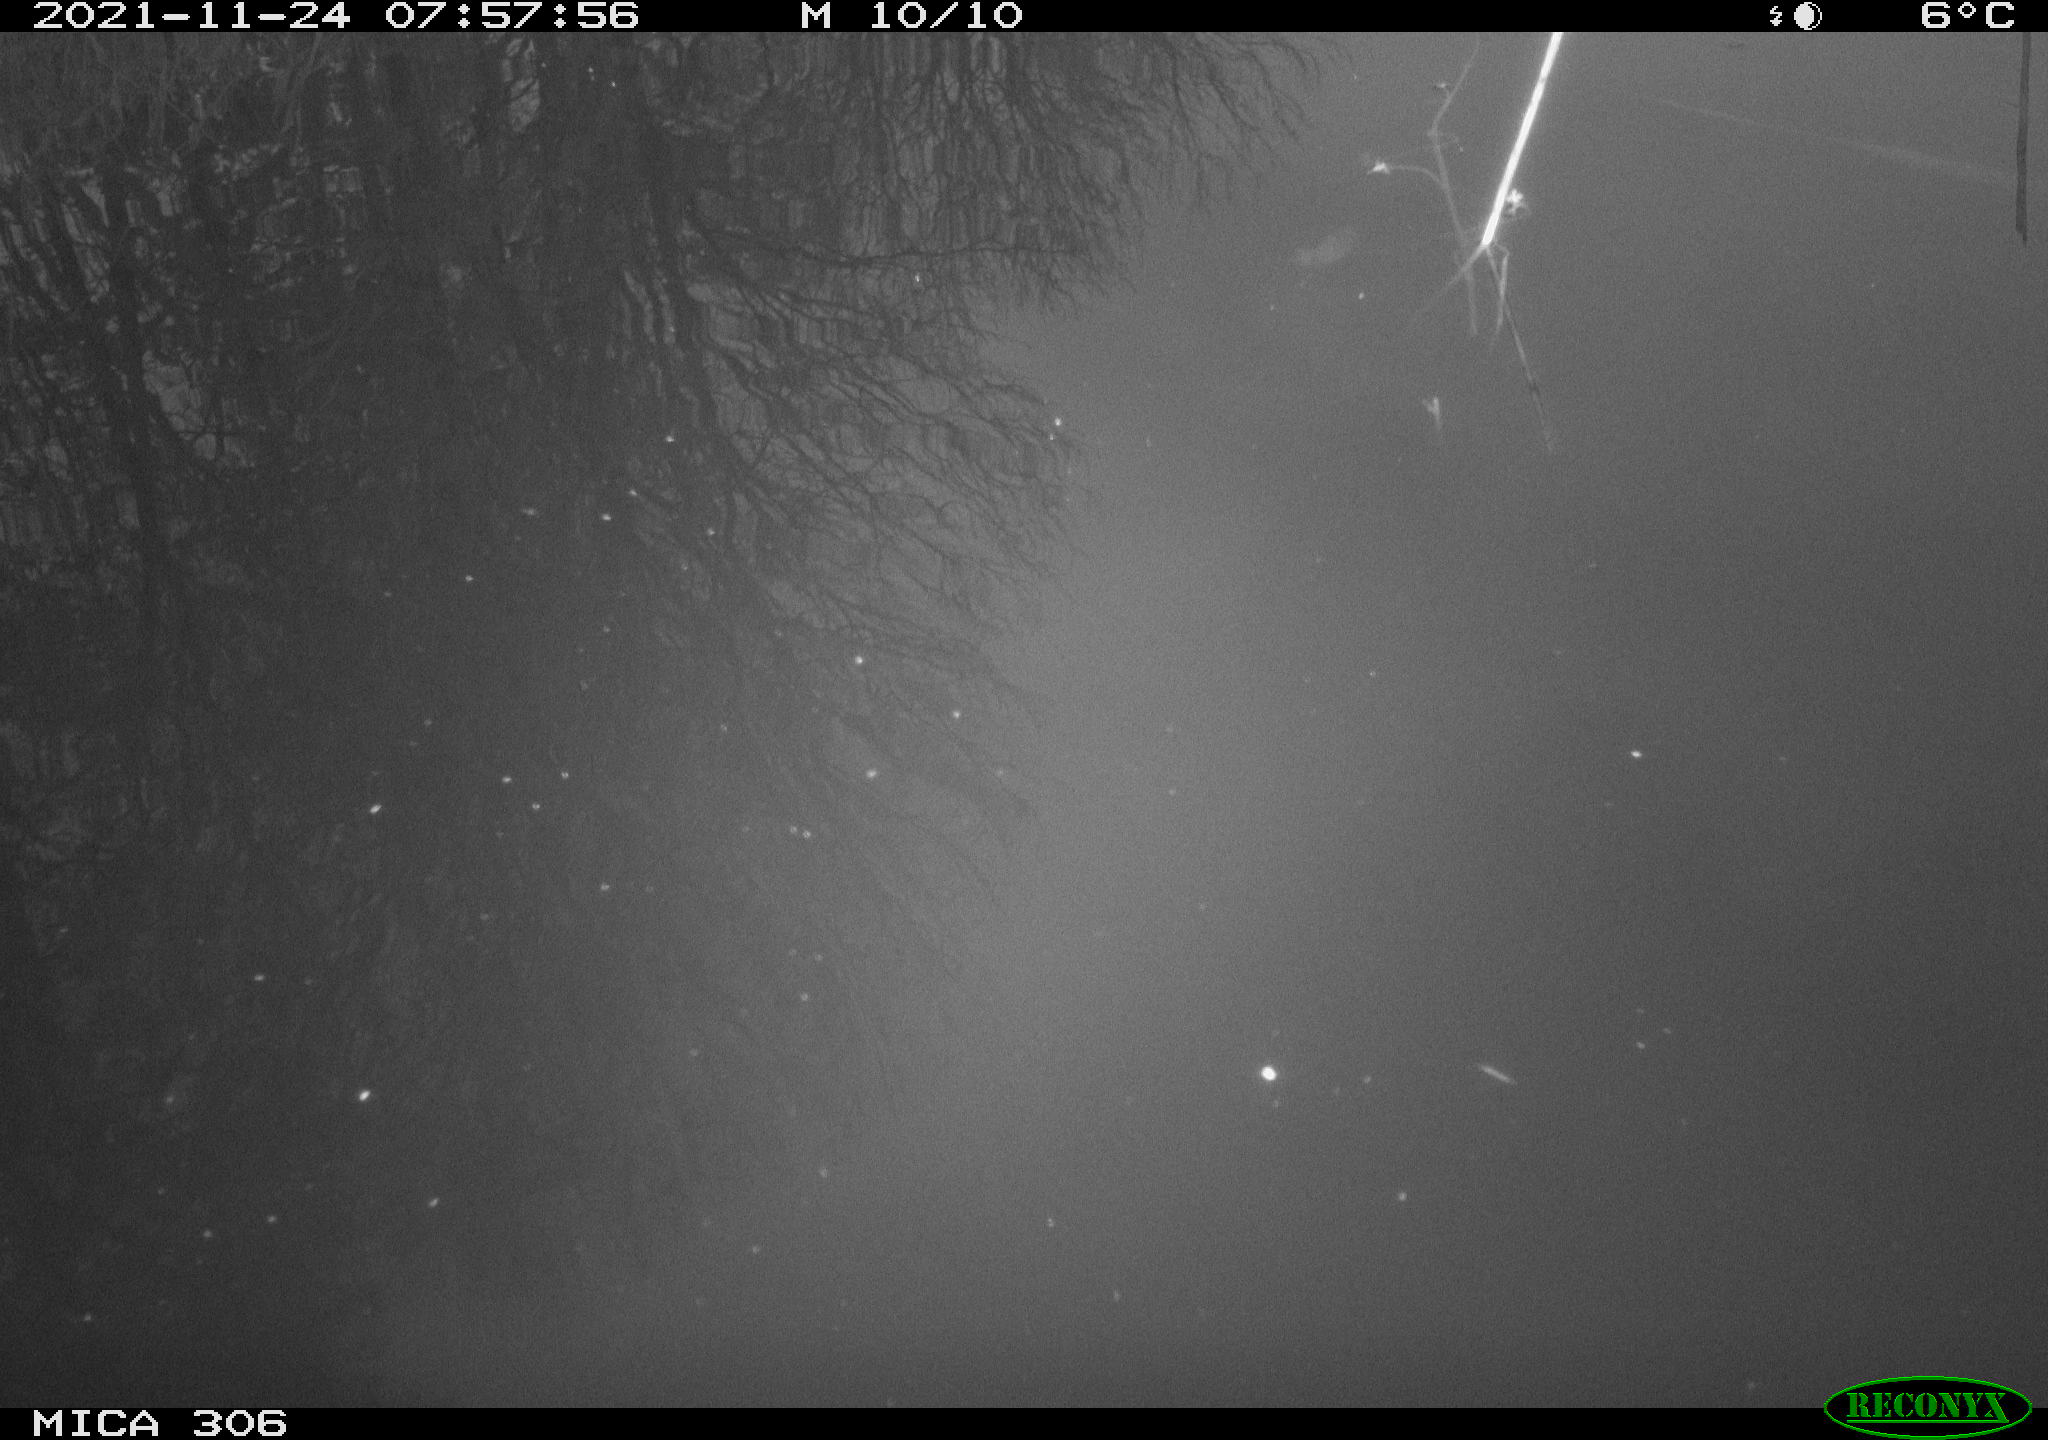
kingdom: Animalia
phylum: Chordata
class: Aves
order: Gruiformes
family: Rallidae
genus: Fulica
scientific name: Fulica atra
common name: Eurasian coot
